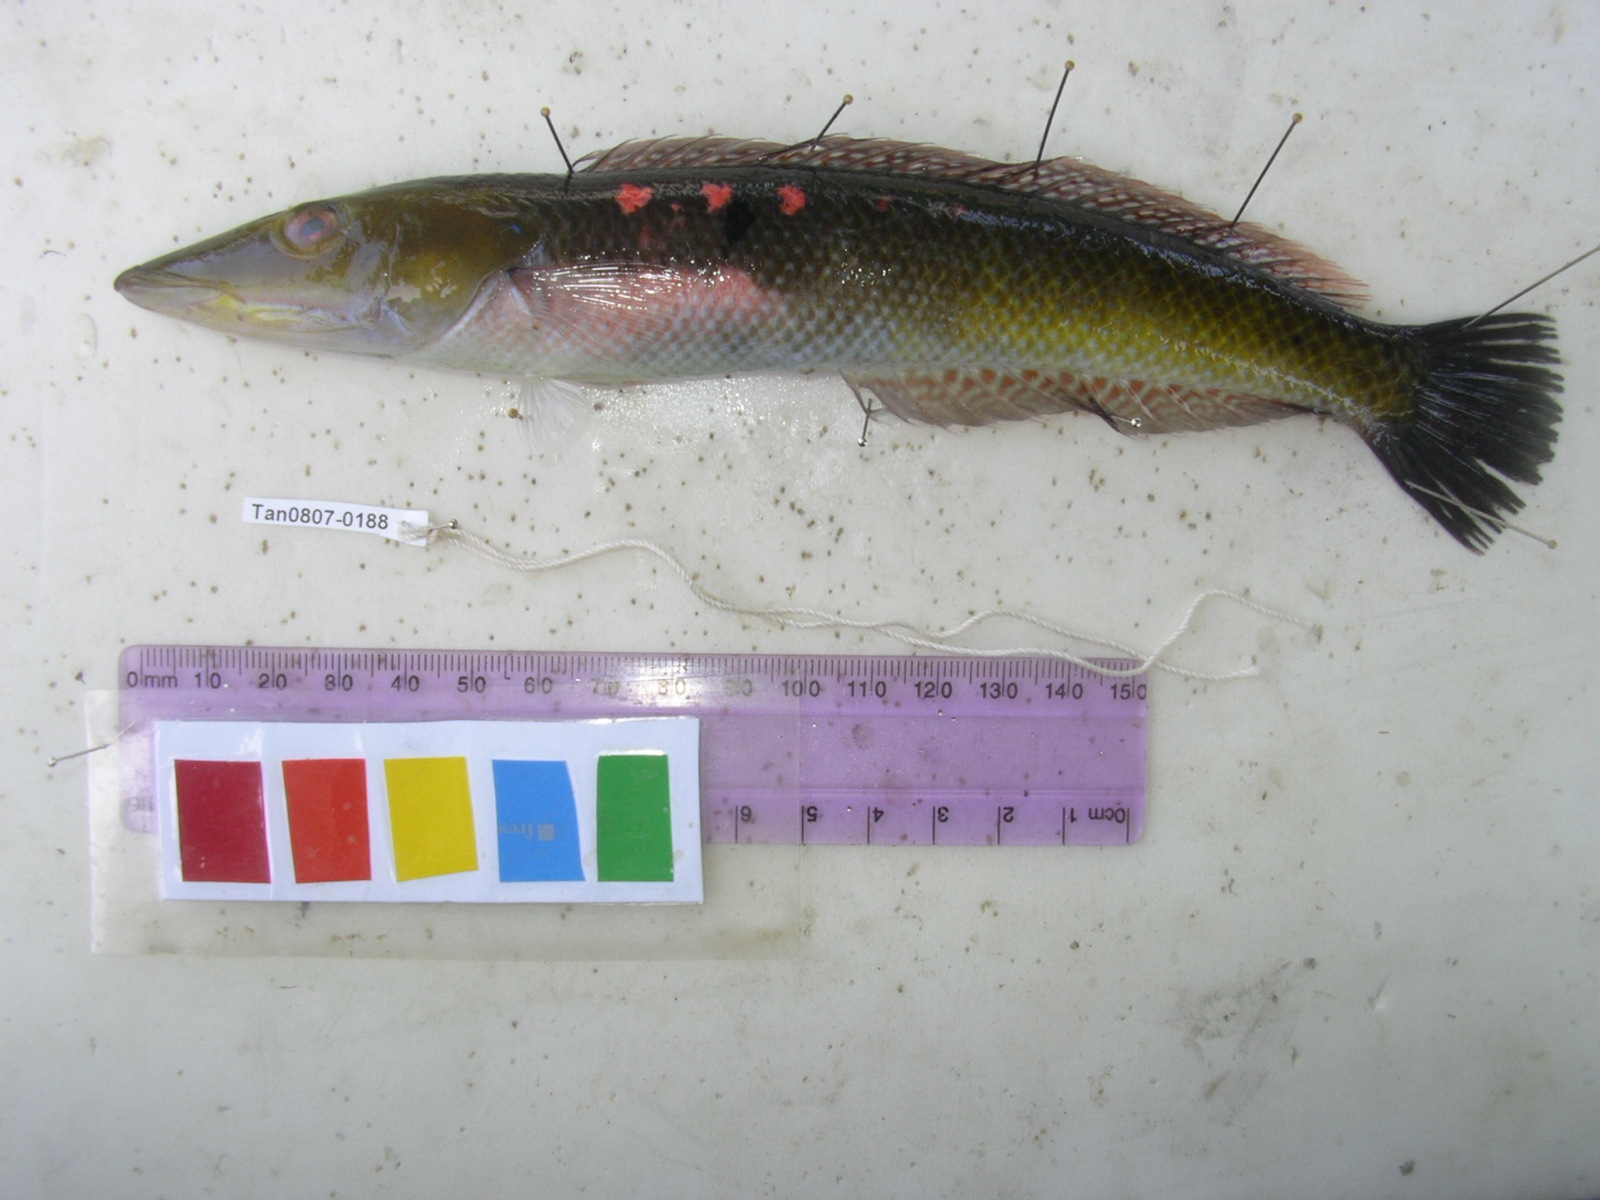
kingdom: Animalia
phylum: Chordata
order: Perciformes
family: Labridae
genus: Cheilio
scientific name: Cheilio inermis
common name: Cigar wrasse
